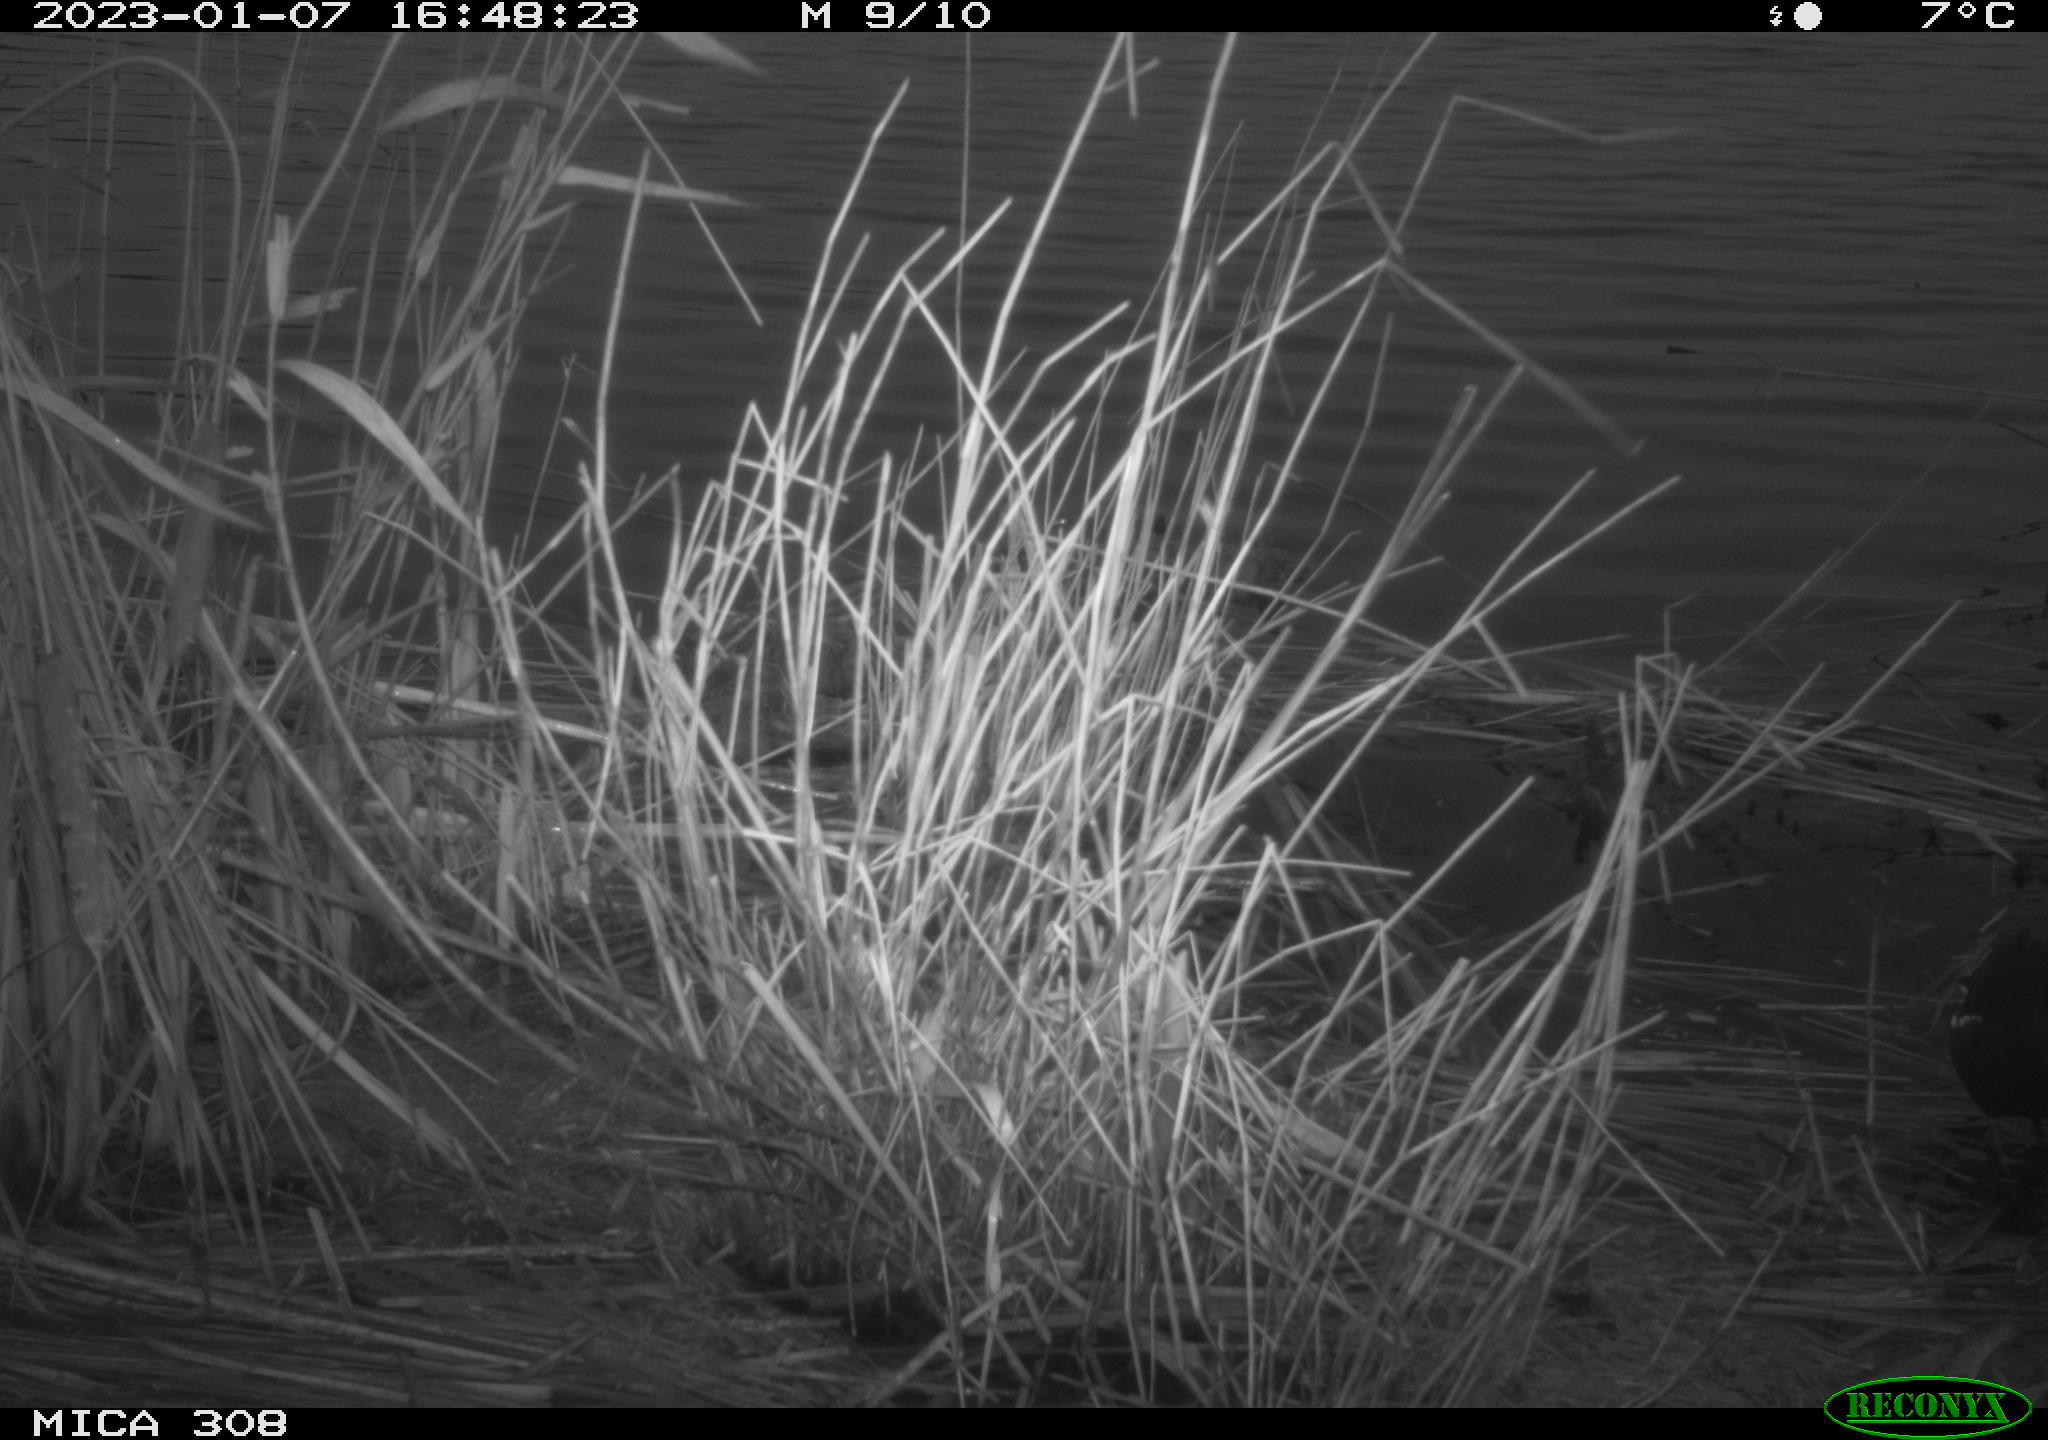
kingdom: Animalia
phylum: Chordata
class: Aves
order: Gruiformes
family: Rallidae
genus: Fulica
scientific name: Fulica atra
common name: Eurasian coot
